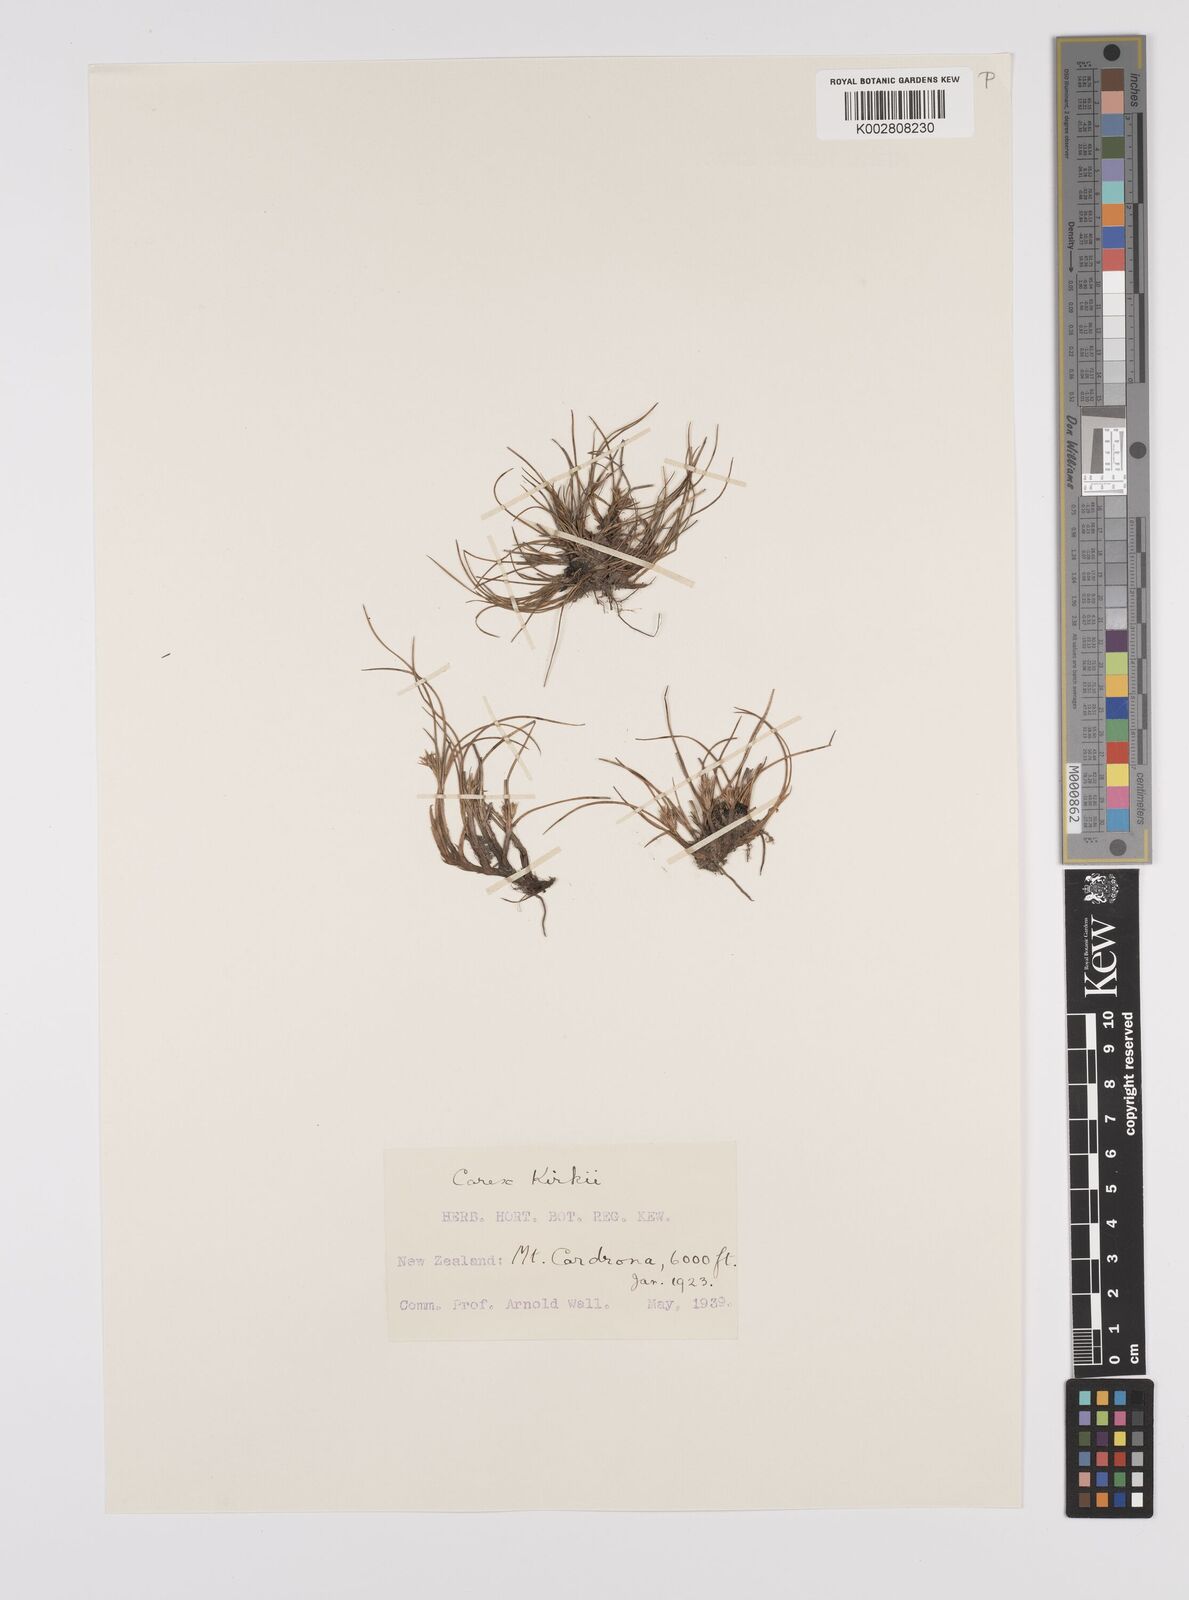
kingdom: Plantae
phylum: Tracheophyta
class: Liliopsida
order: Poales
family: Cyperaceae
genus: Carex
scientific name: Carex kirkii
